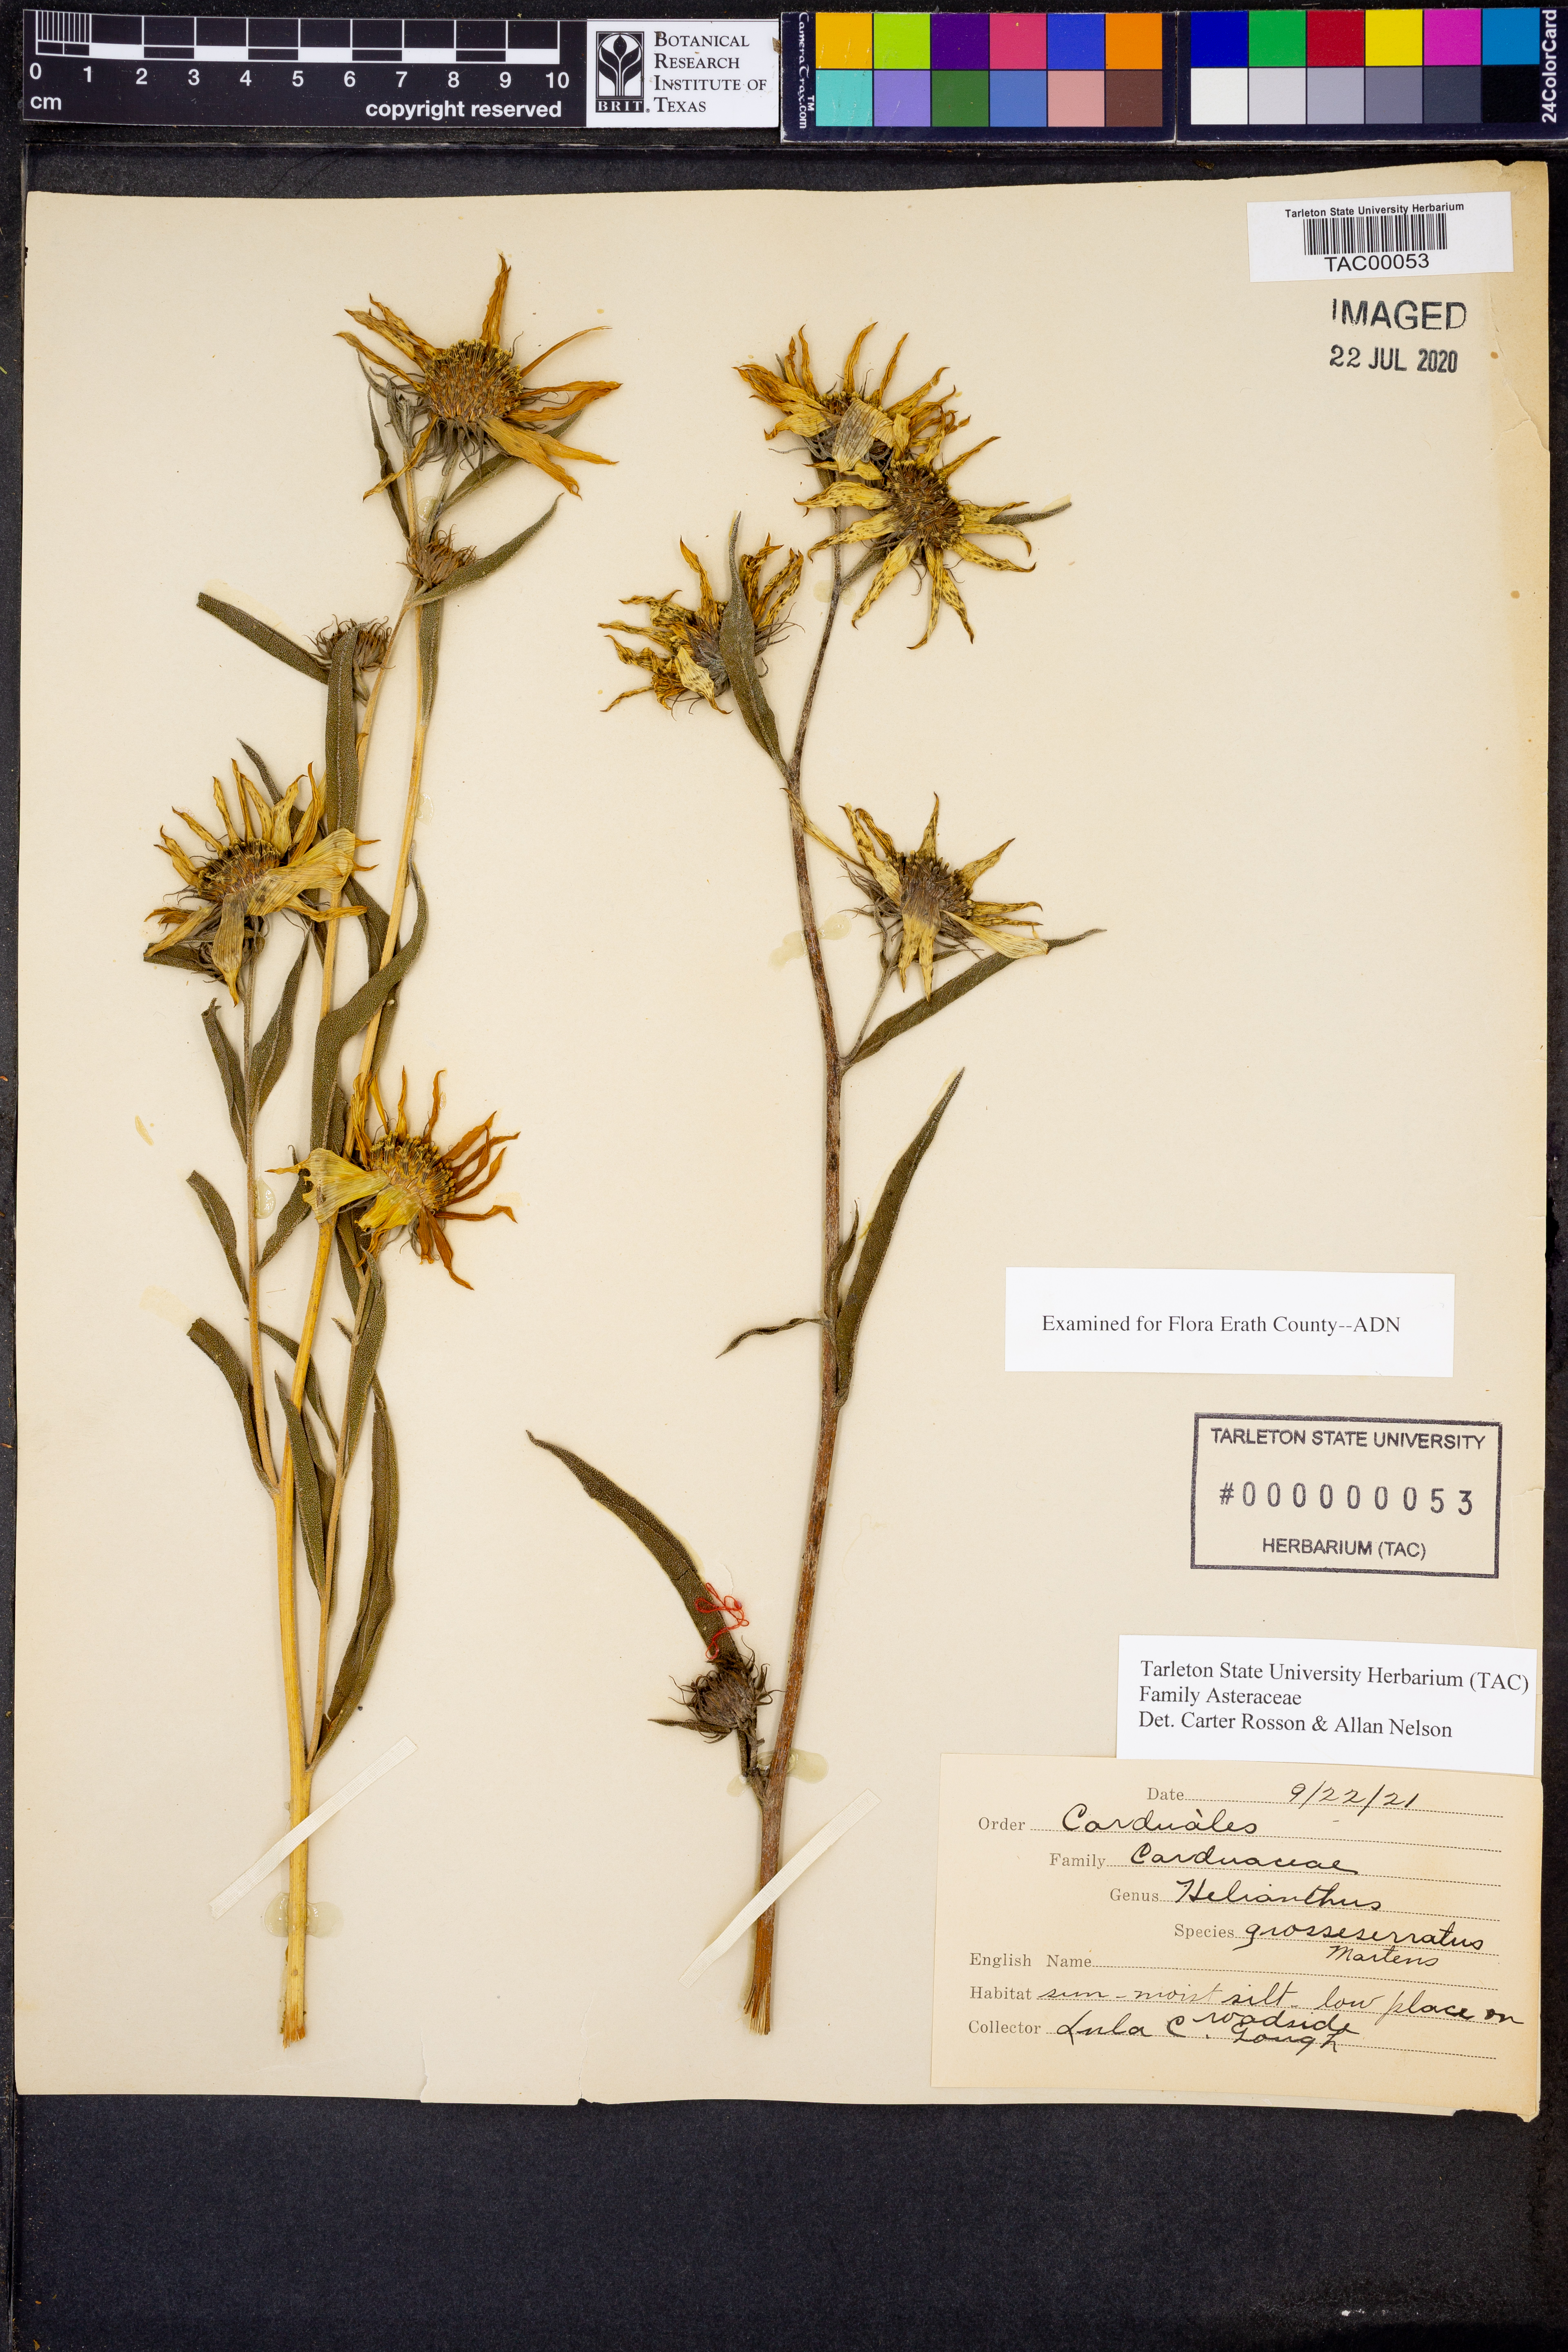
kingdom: Plantae
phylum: Tracheophyta
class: Magnoliopsida
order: Asterales
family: Asteraceae
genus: Helianthus
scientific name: Helianthus grosseserratus
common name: Sawtooth sunflower
